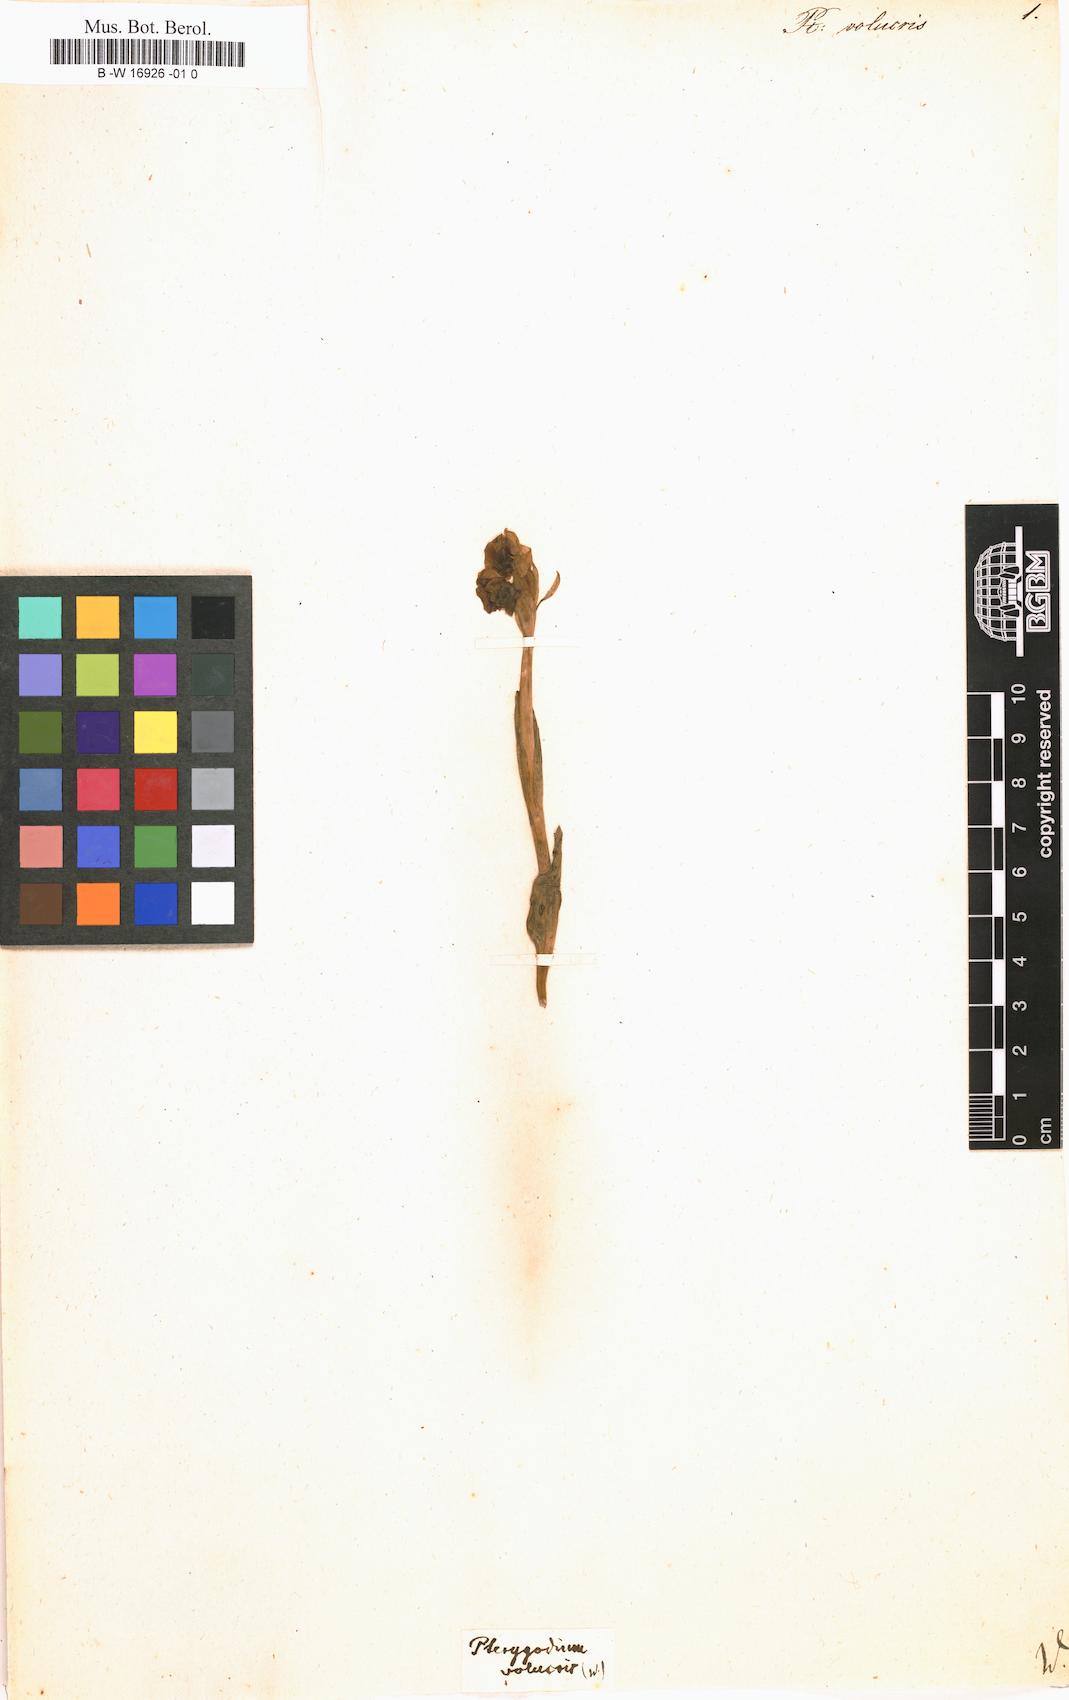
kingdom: Plantae
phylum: Tracheophyta
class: Liliopsida
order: Asparagales
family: Orchidaceae
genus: Pterygodium
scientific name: Pterygodium volucris
